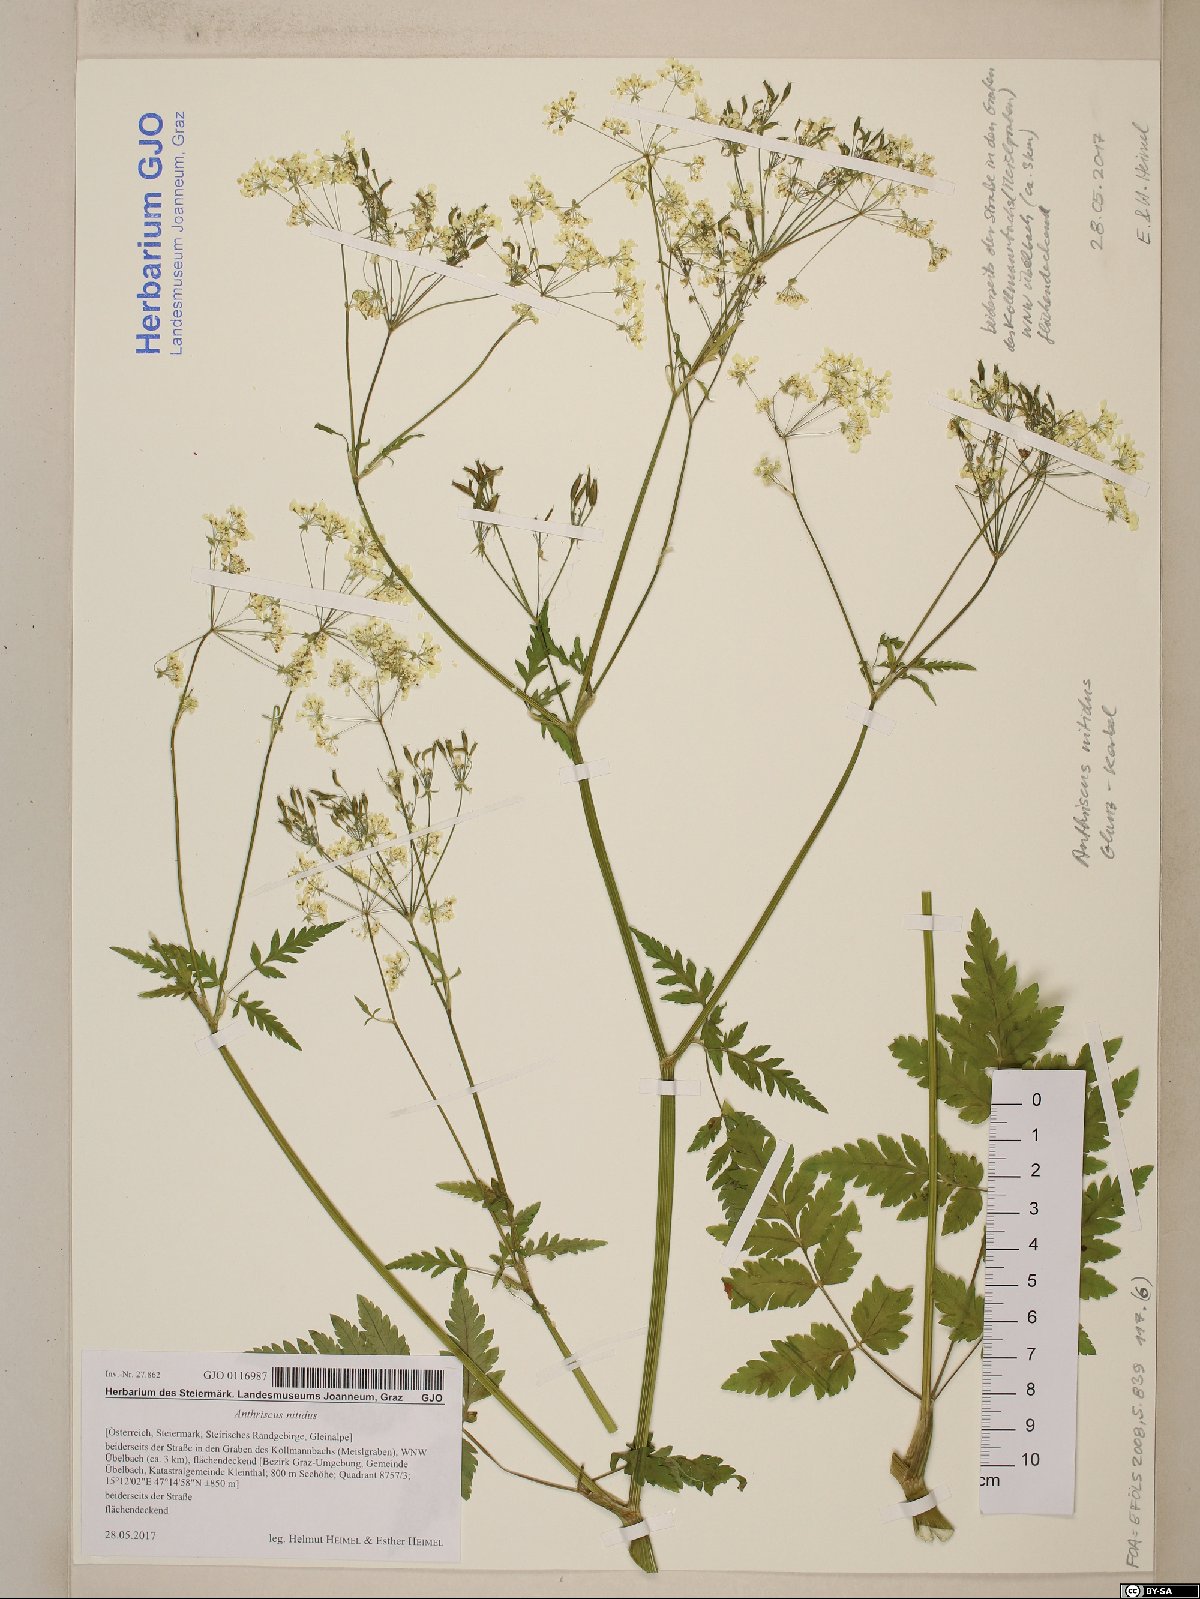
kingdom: Plantae
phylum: Tracheophyta
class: Magnoliopsida
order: Apiales
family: Apiaceae
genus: Anthriscus
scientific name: Anthriscus nitida
